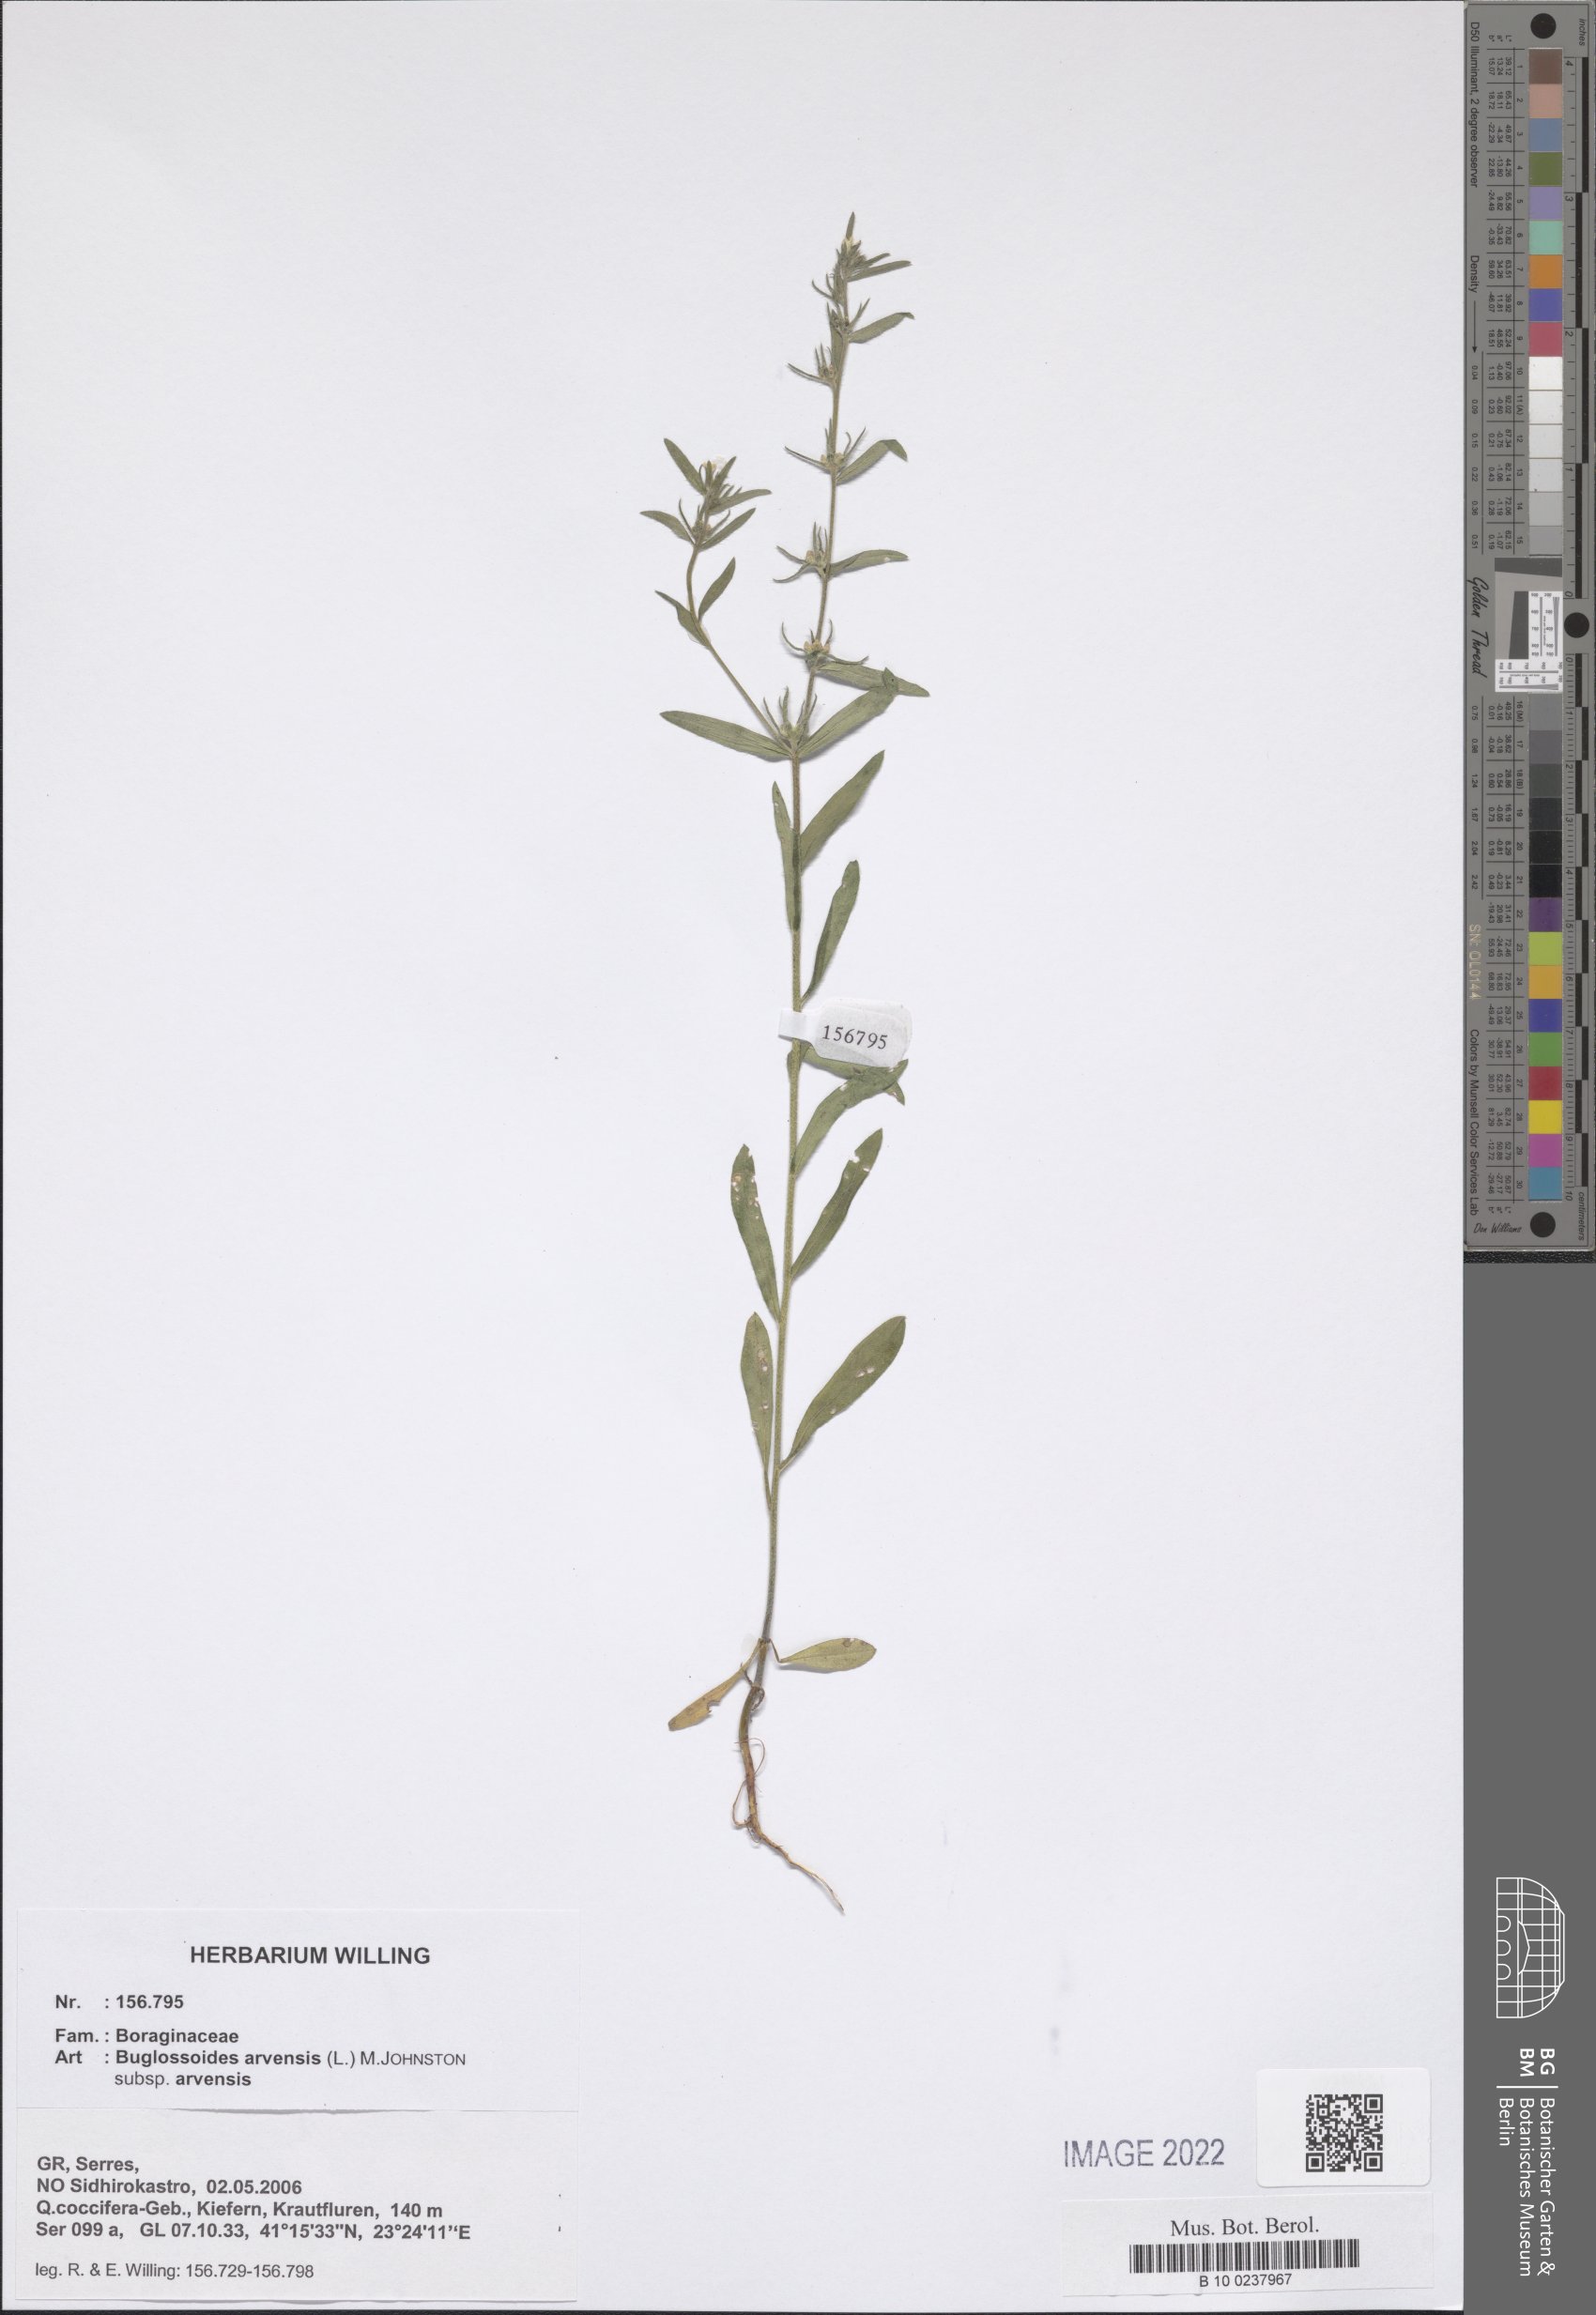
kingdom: Plantae
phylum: Tracheophyta
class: Magnoliopsida
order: Boraginales
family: Boraginaceae
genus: Buglossoides
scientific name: Buglossoides arvensis
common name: Corn gromwell
